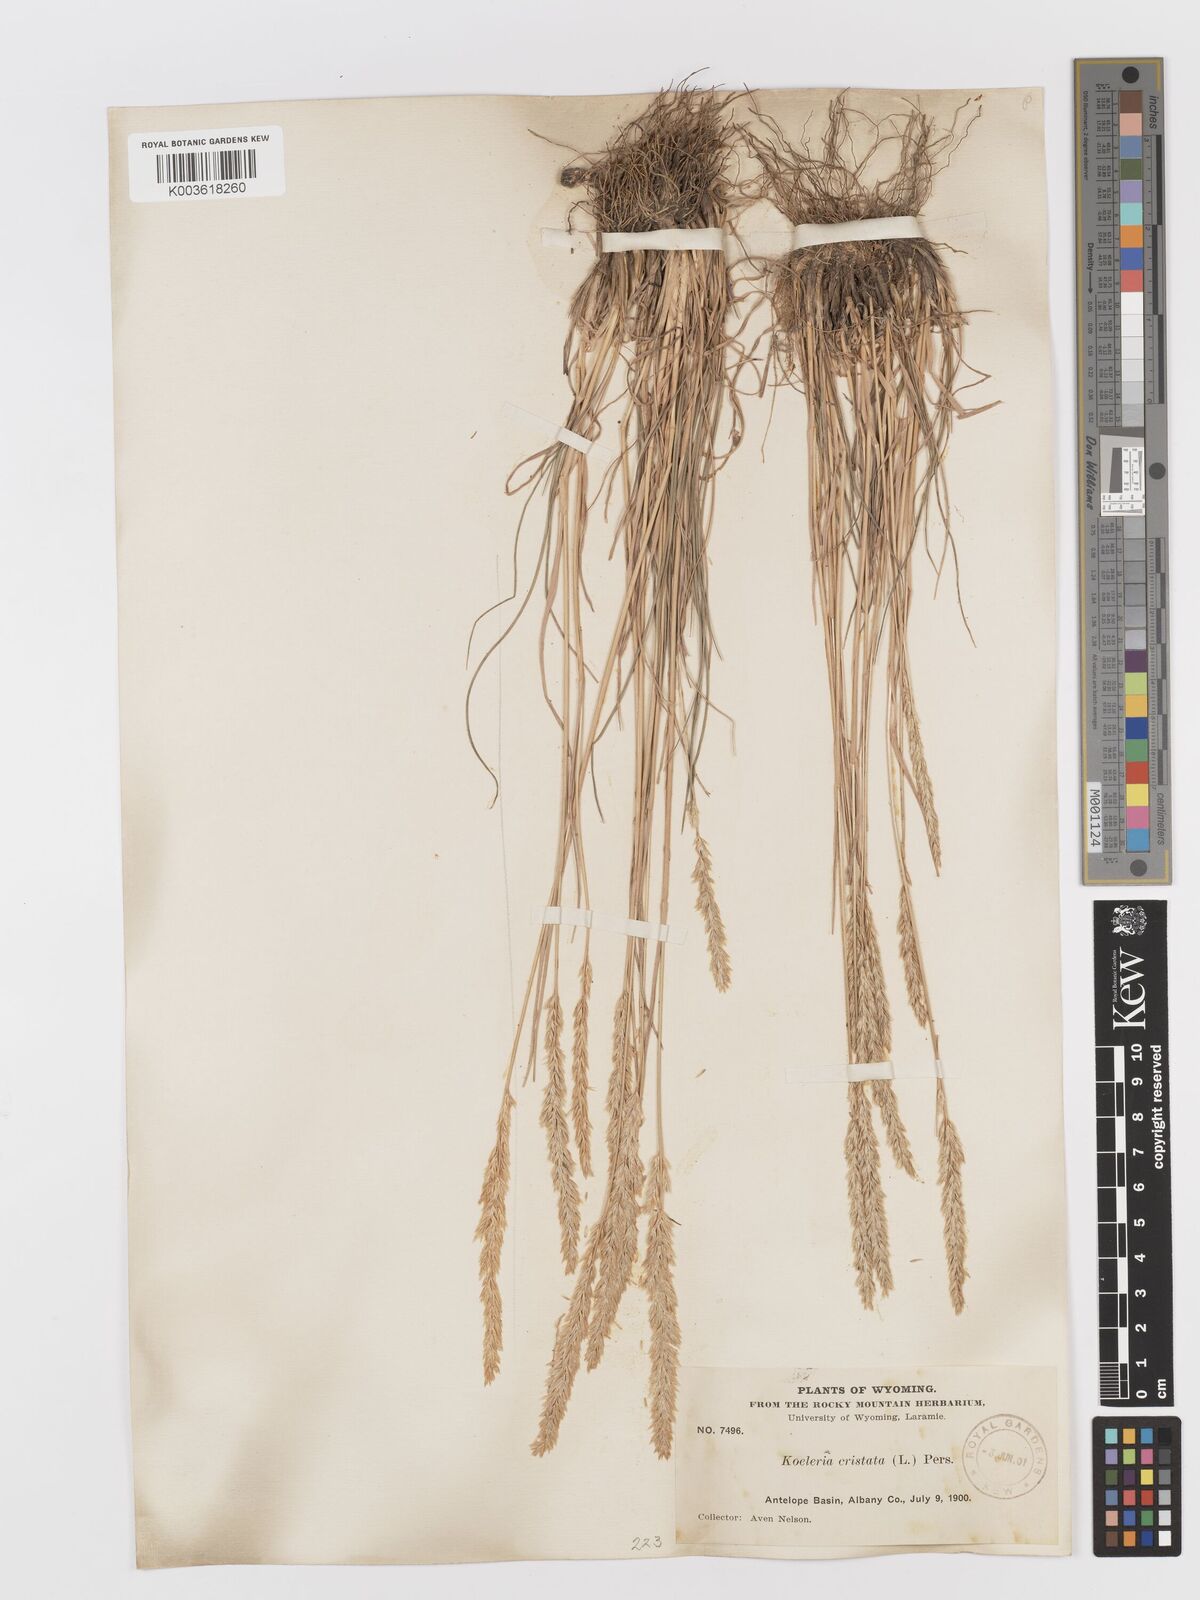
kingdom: Plantae
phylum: Tracheophyta
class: Liliopsida
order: Poales
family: Poaceae
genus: Koeleria
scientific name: Koeleria macrantha
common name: Crested hair-grass
